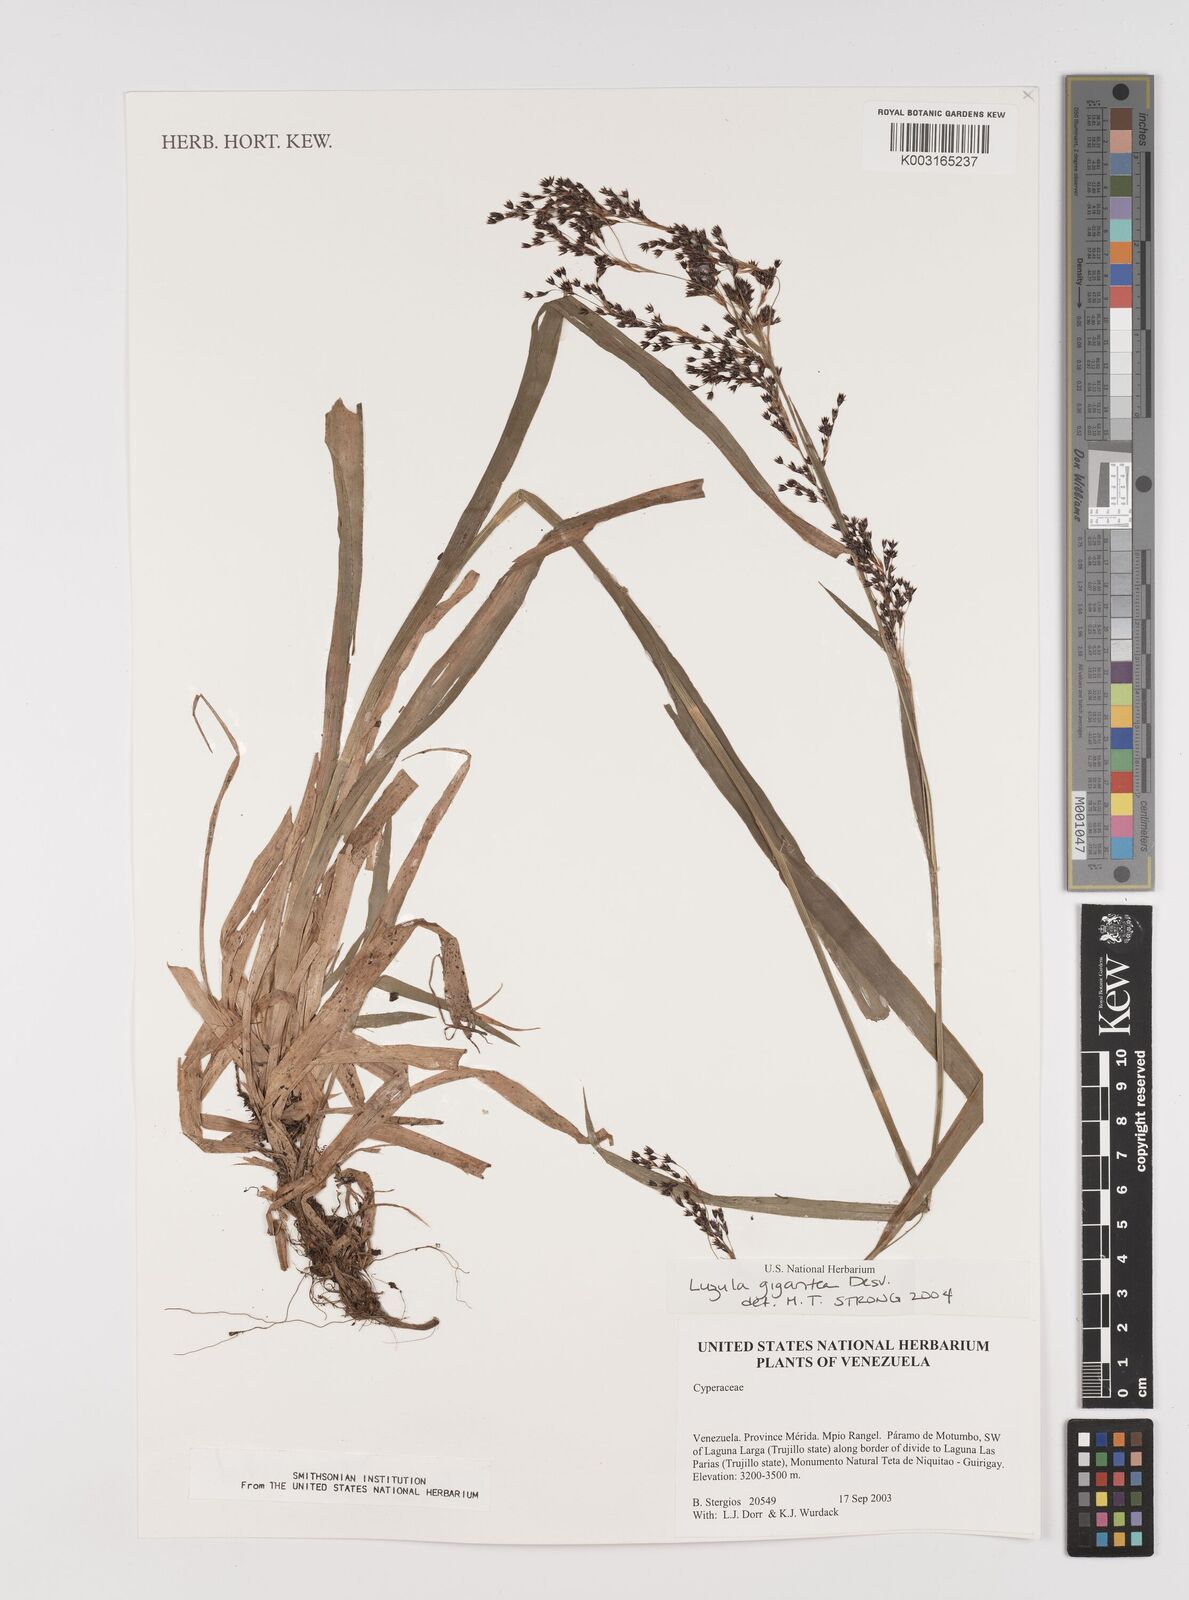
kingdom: Plantae
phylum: Tracheophyta
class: Liliopsida
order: Poales
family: Juncaceae
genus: Luzula
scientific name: Luzula gigantea
